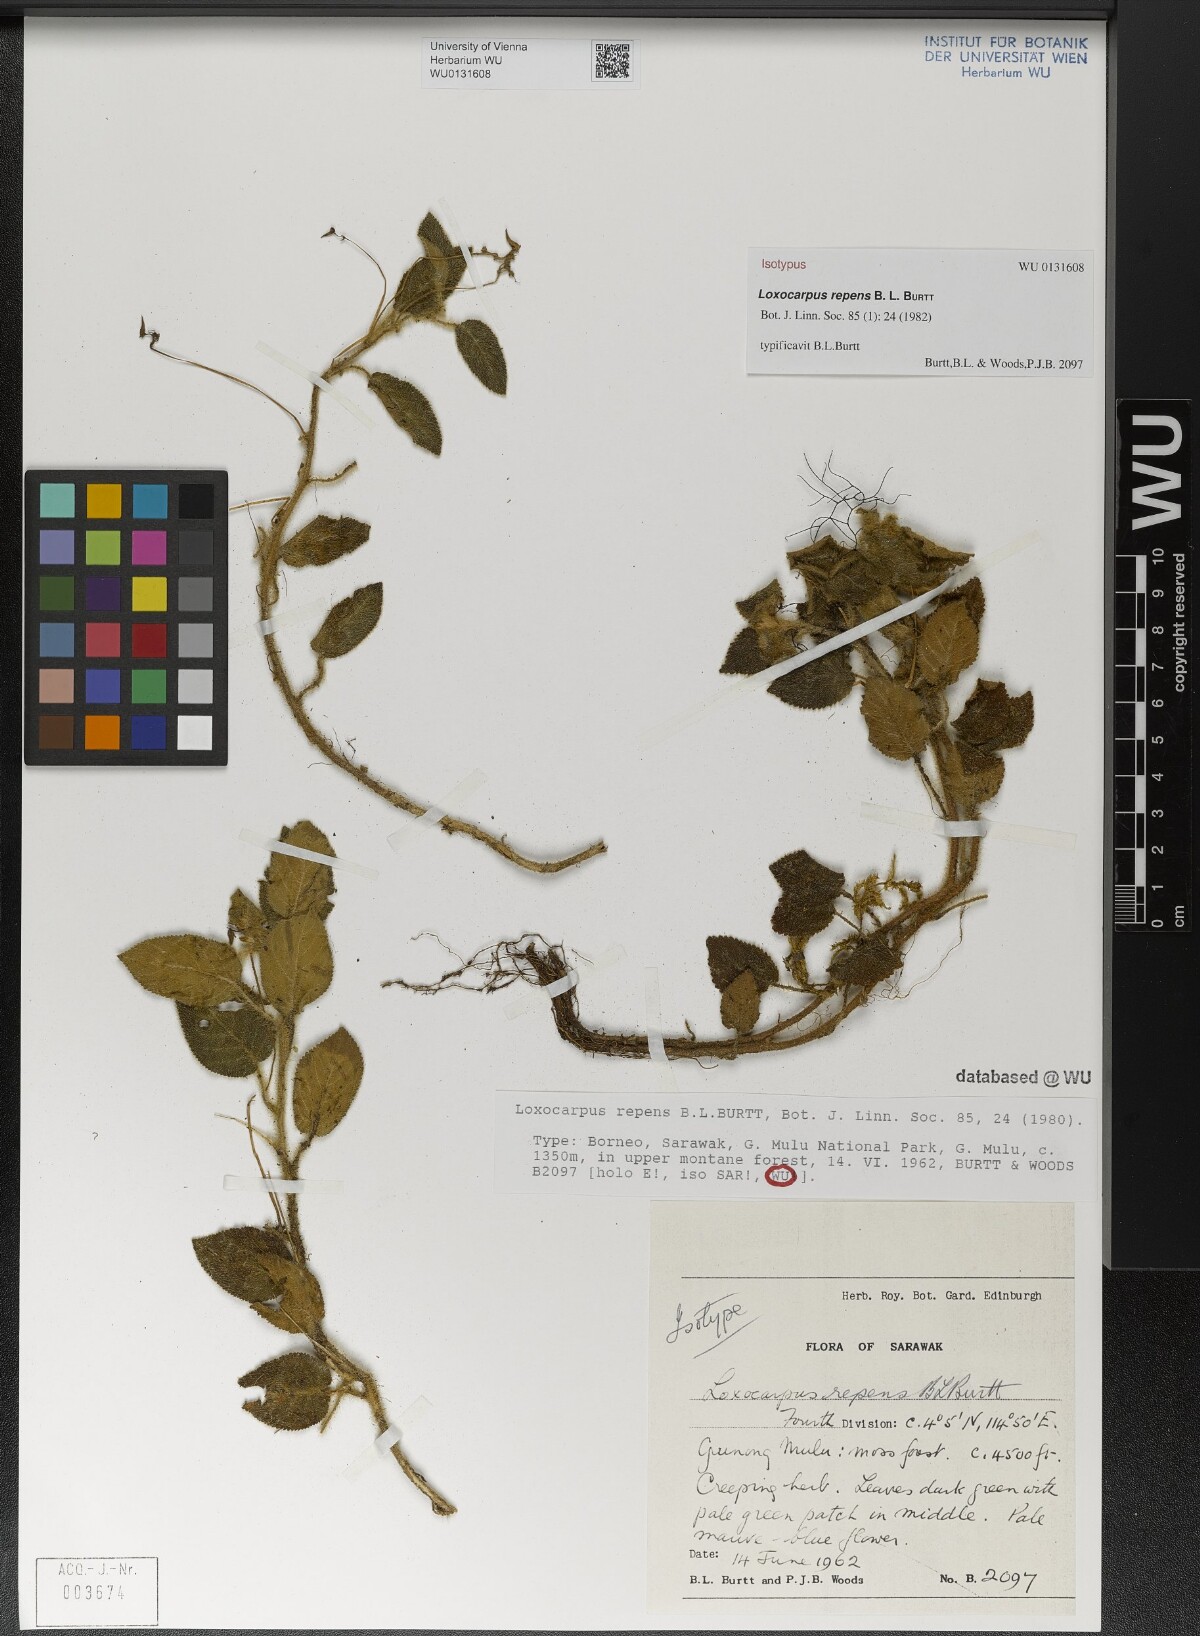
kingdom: Plantae
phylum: Tracheophyta
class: Magnoliopsida
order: Lamiales
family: Gesneriaceae
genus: Loxocarpus
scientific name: Loxocarpus repens
